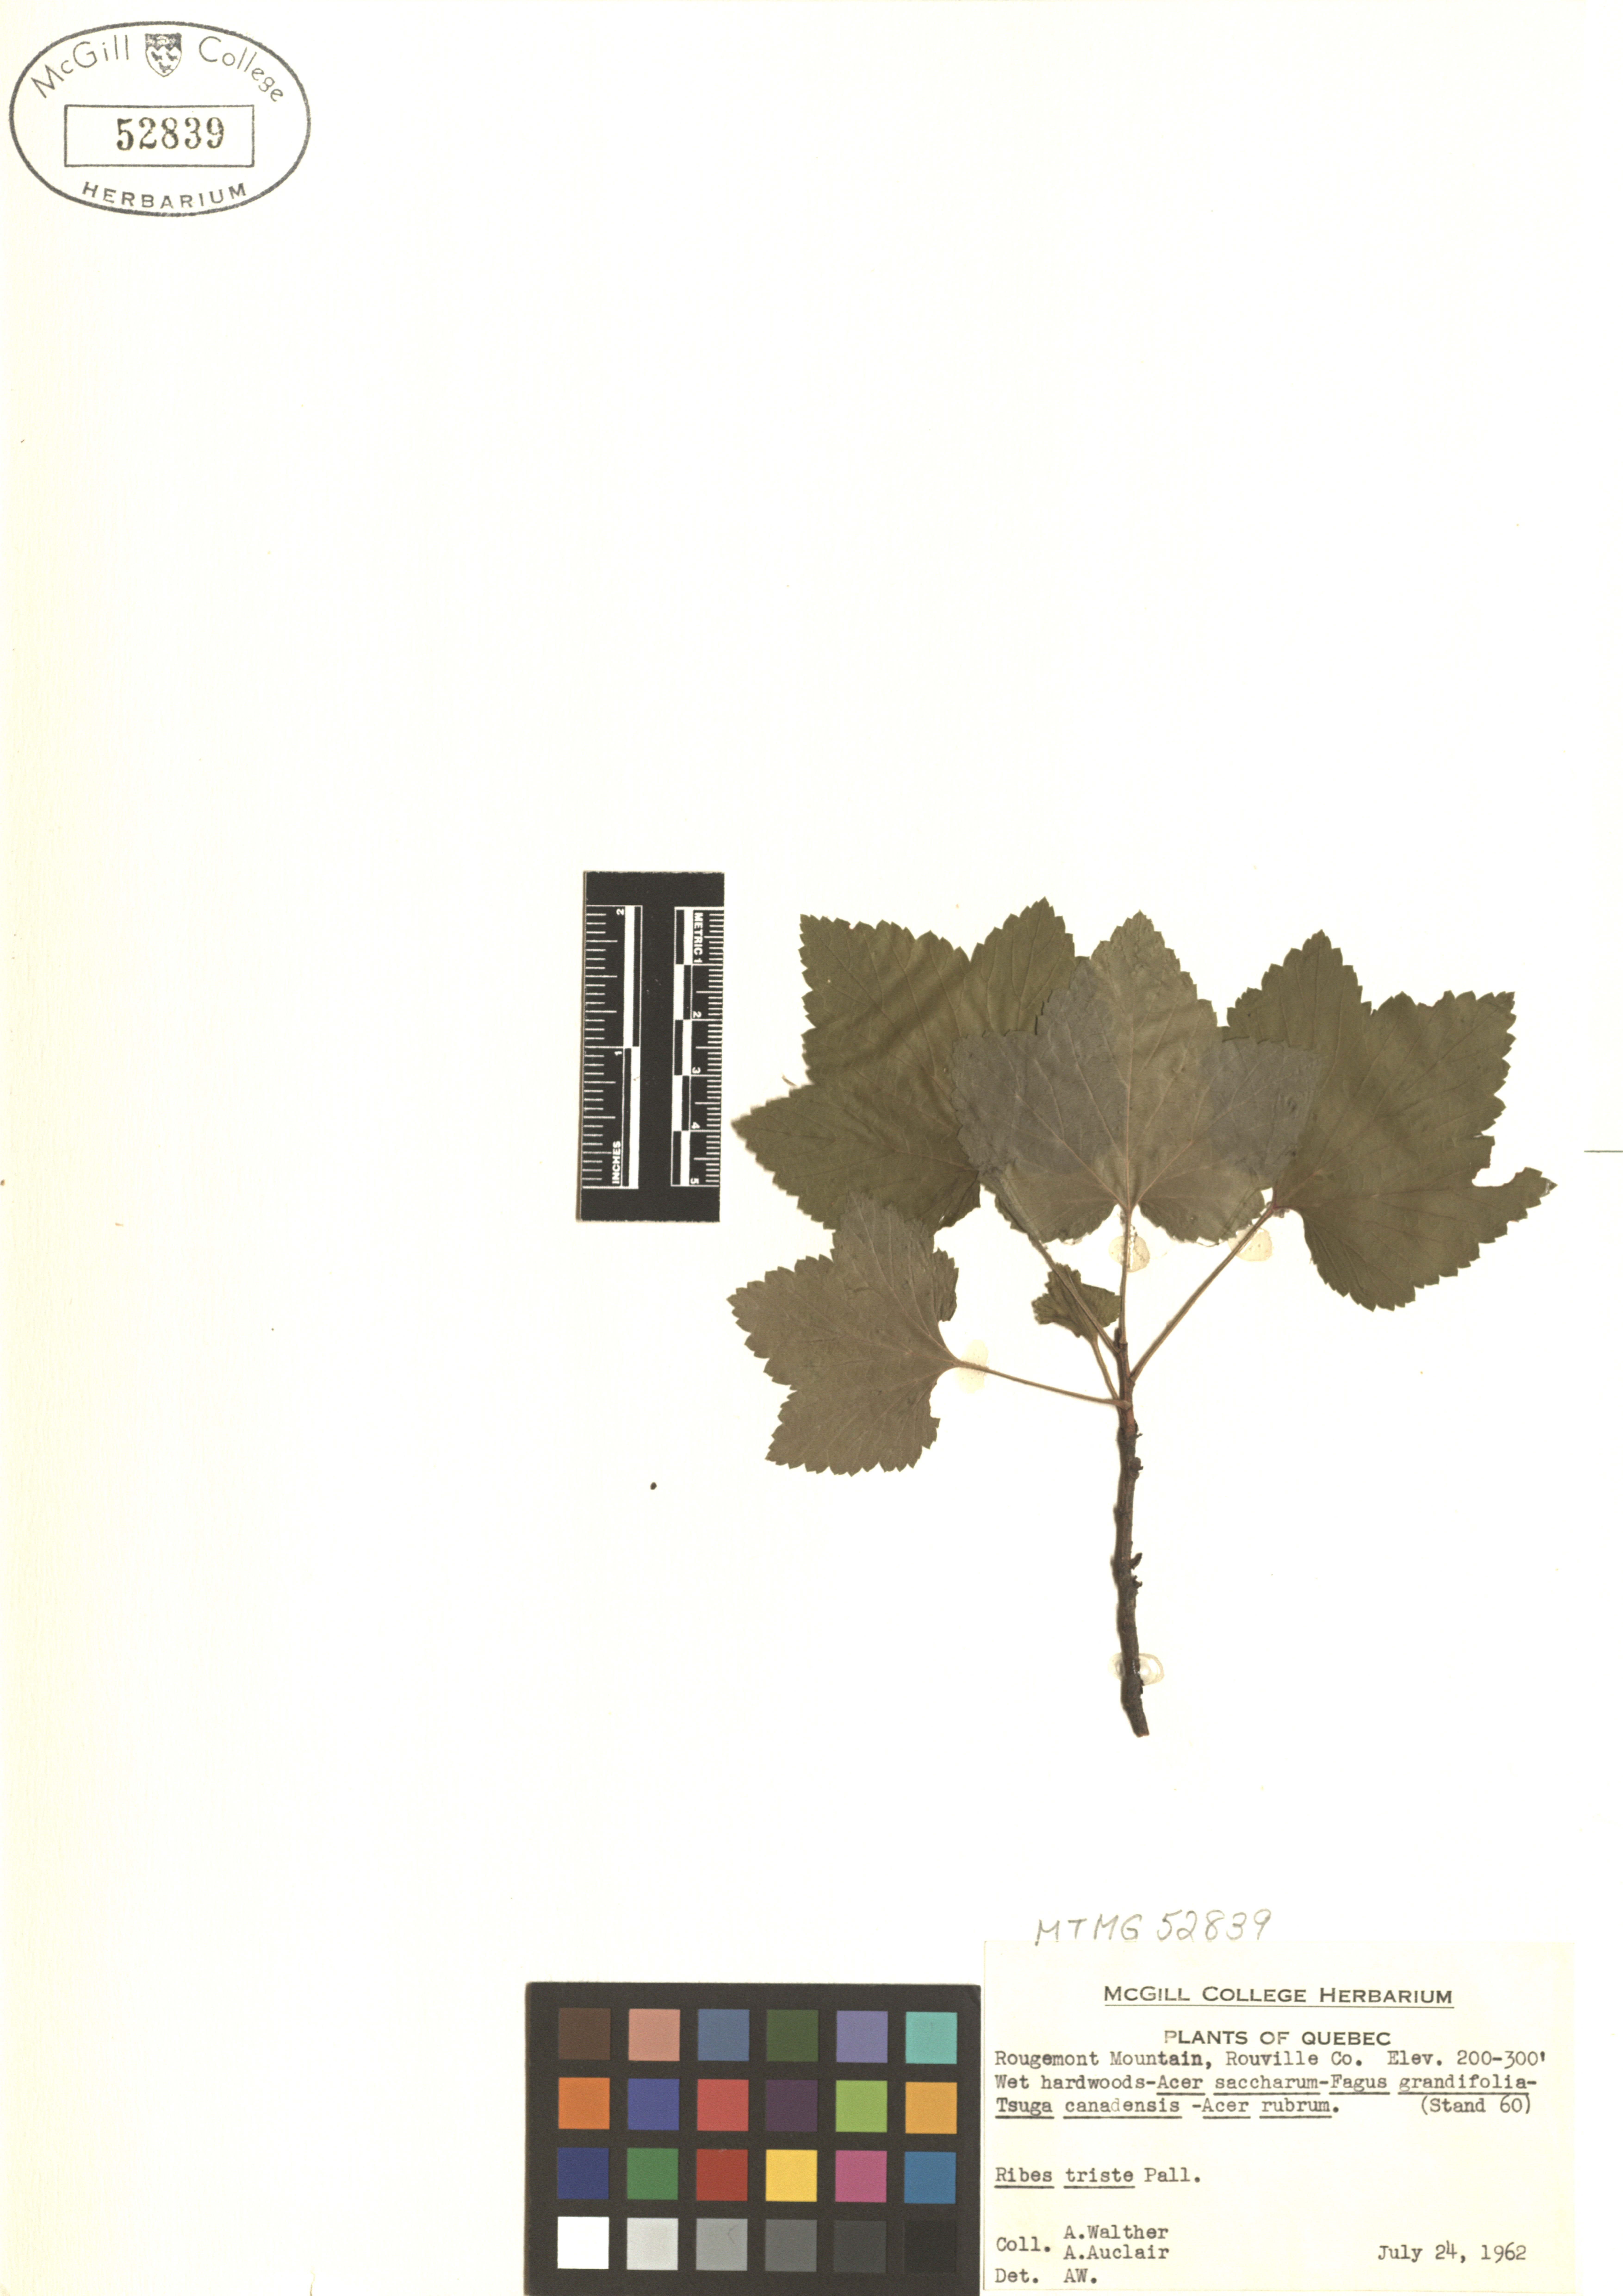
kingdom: Plantae
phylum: Tracheophyta
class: Magnoliopsida
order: Saxifragales
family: Grossulariaceae
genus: Ribes
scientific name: Ribes triste
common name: Swamp red currant
